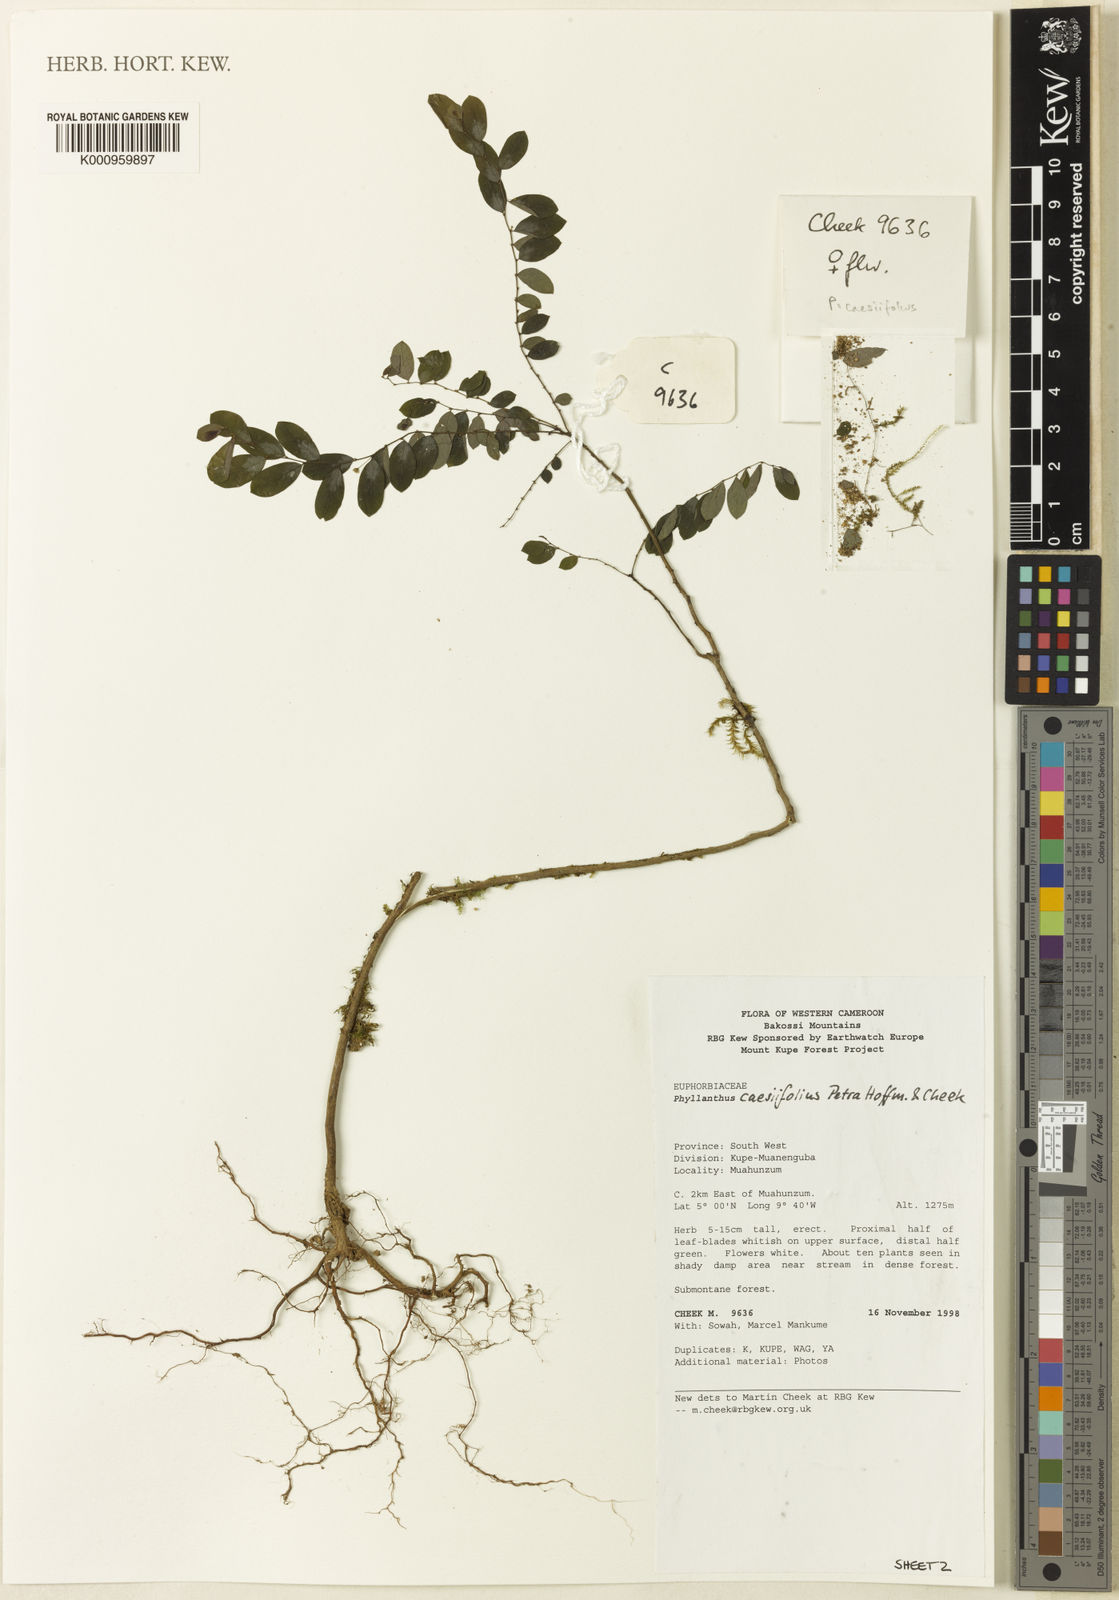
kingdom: Plantae
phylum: Tracheophyta
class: Magnoliopsida
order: Malpighiales
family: Phyllanthaceae
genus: Phyllanthus
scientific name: Phyllanthus caesiifolius
